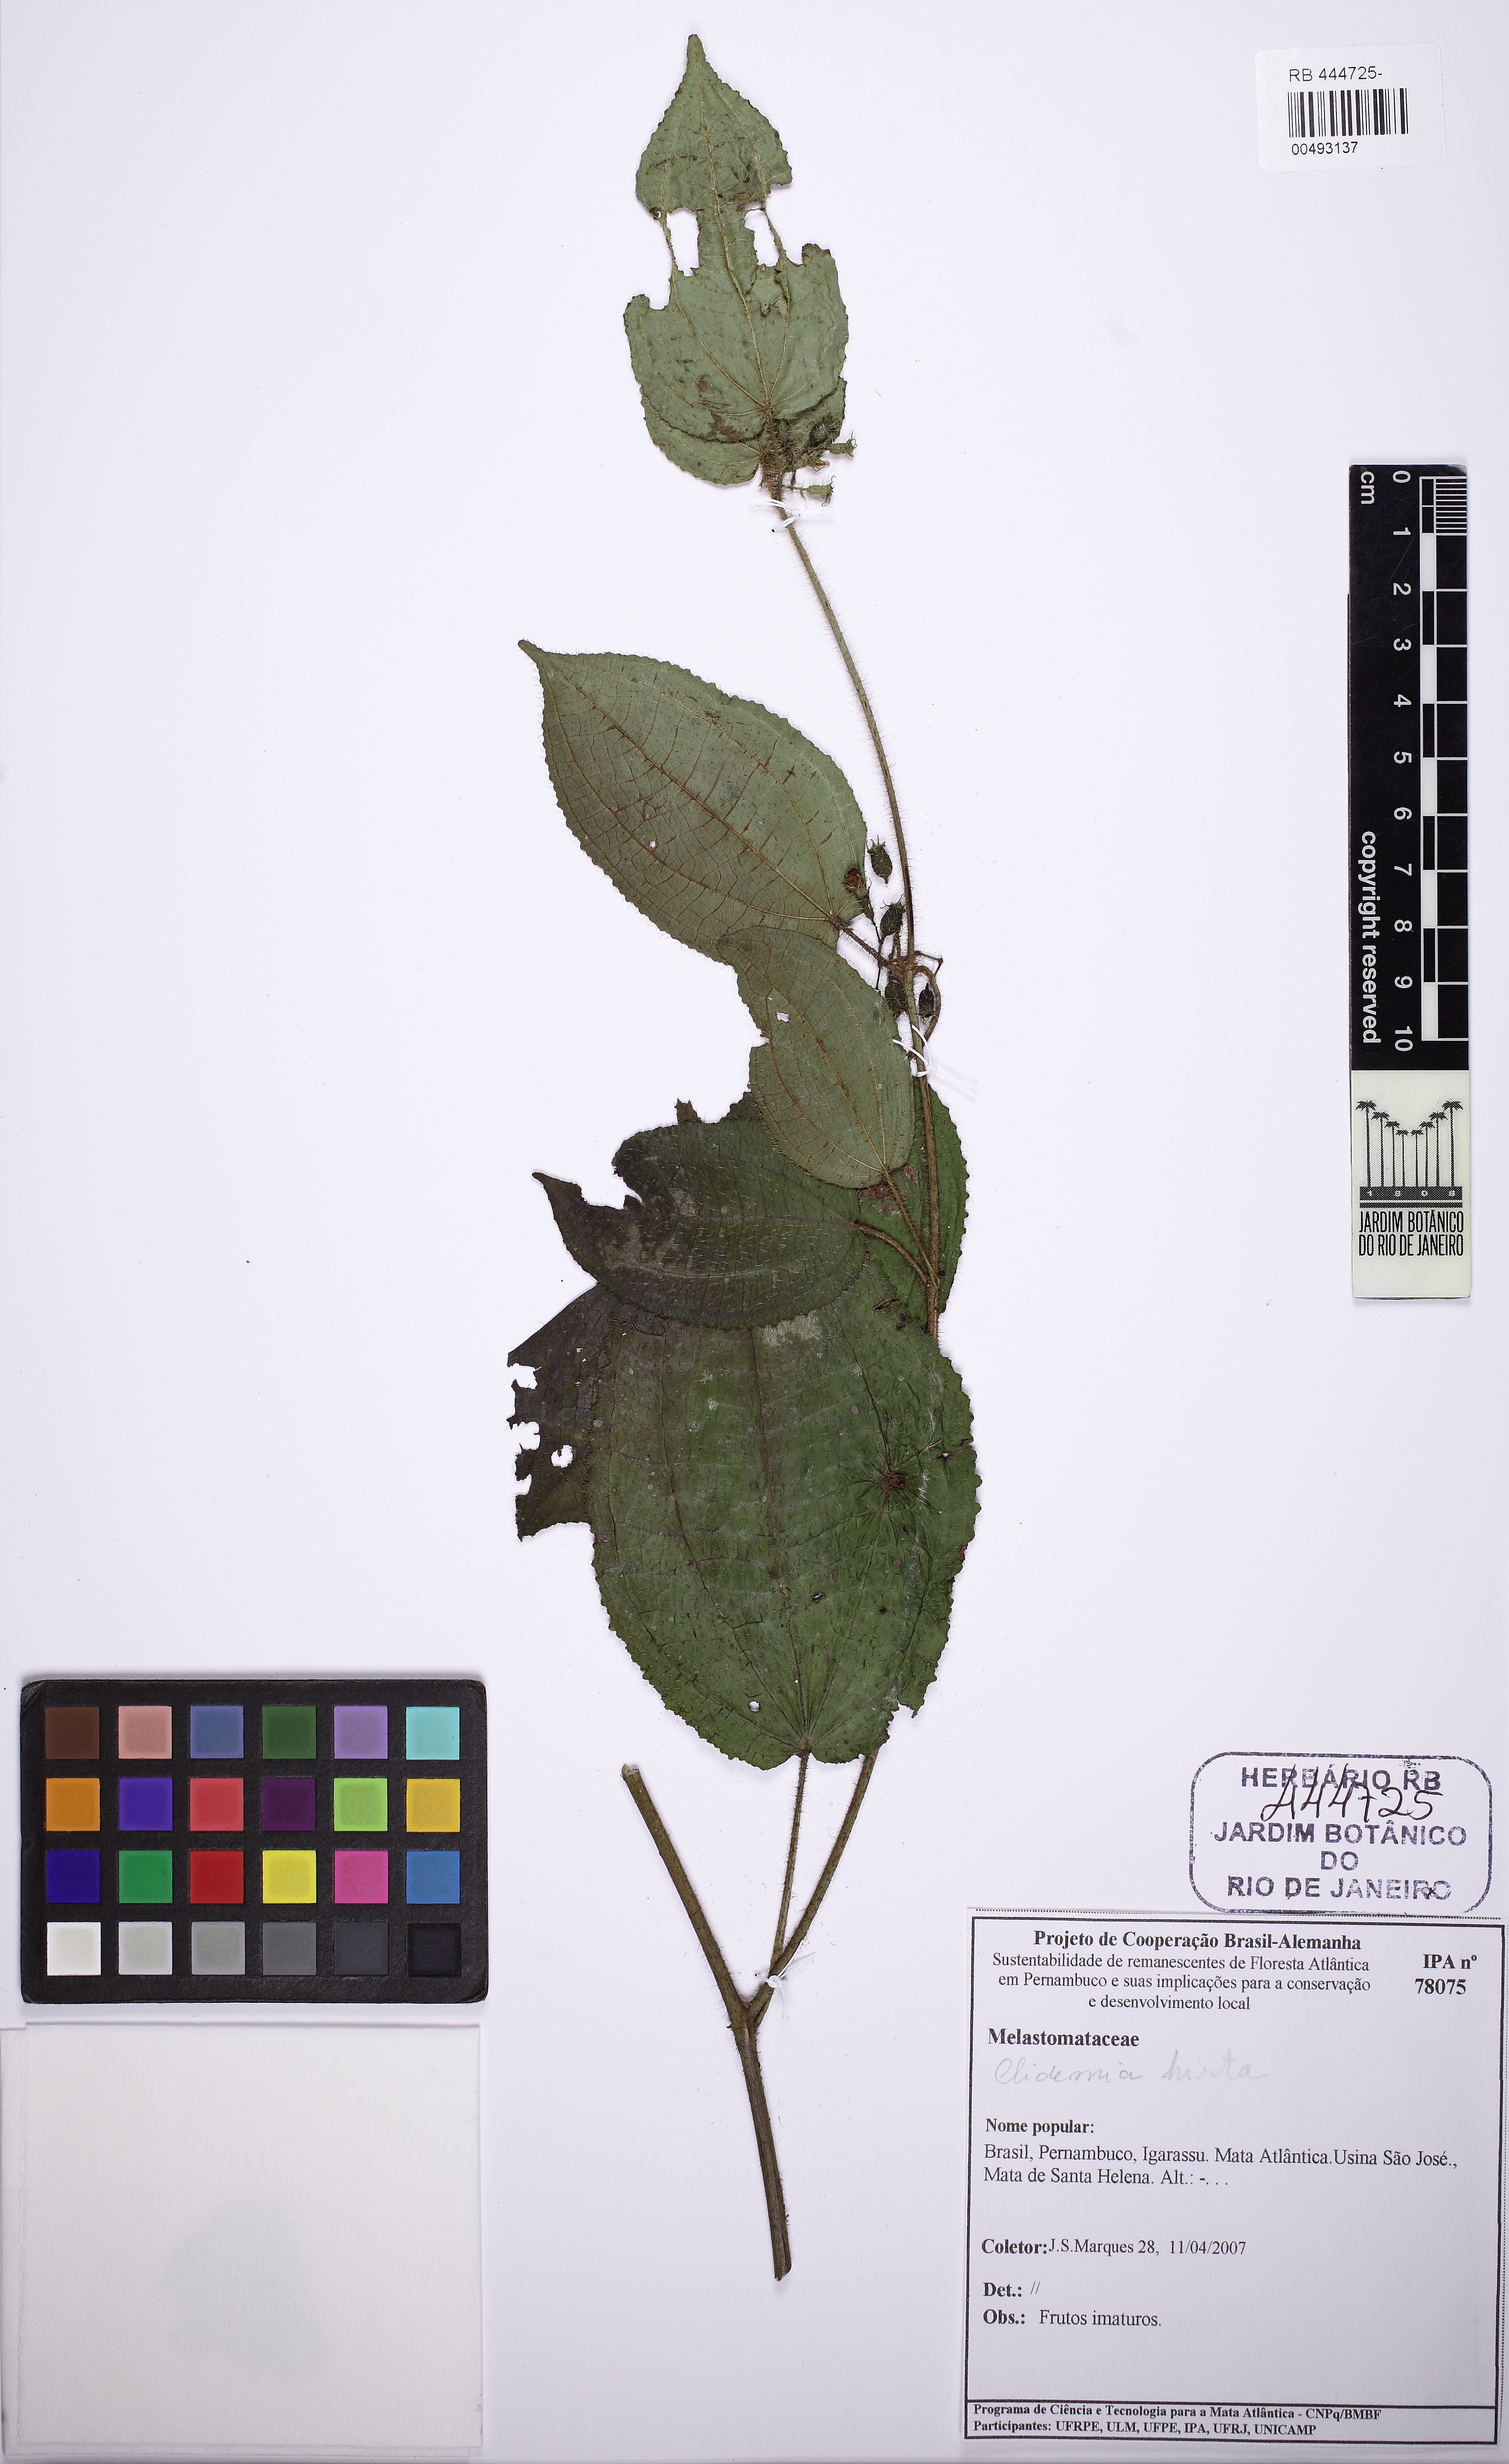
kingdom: Plantae
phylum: Tracheophyta
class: Magnoliopsida
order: Myrtales
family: Melastomataceae
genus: Miconia
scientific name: Miconia crenata
